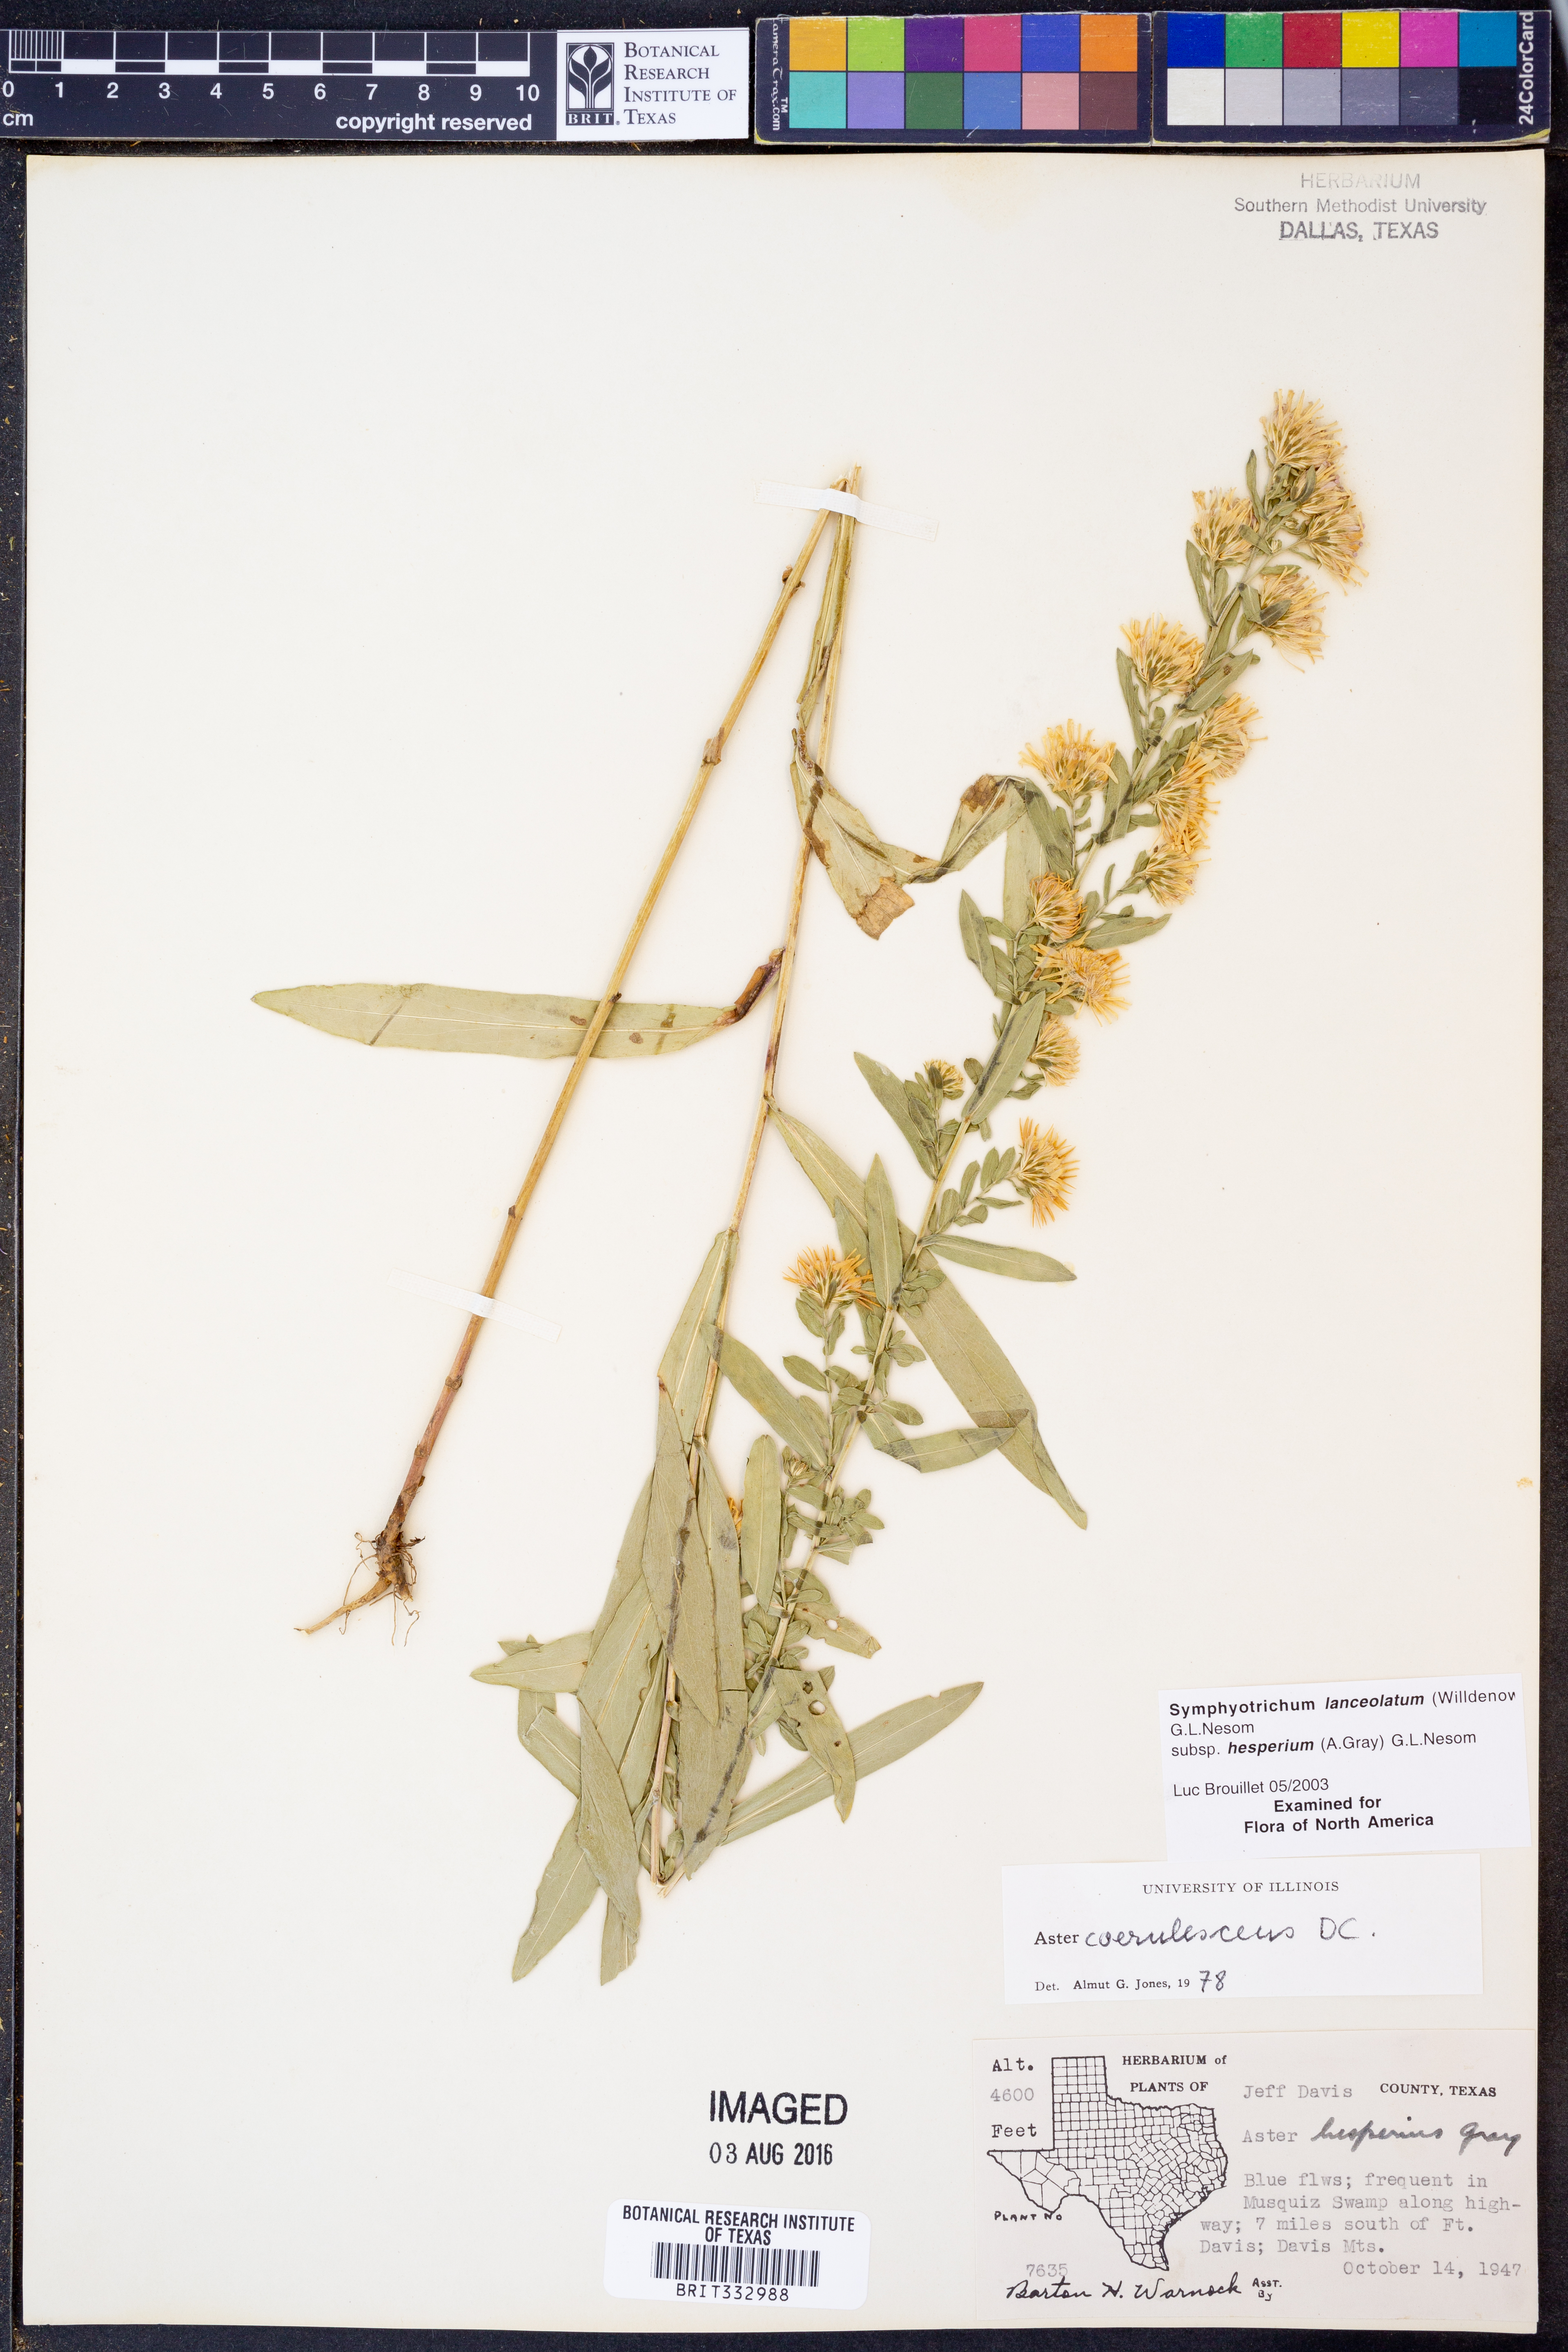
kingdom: Plantae
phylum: Tracheophyta
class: Magnoliopsida
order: Asterales
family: Asteraceae
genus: Symphyotrichum
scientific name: Symphyotrichum lanceolatum
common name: Panicled aster
